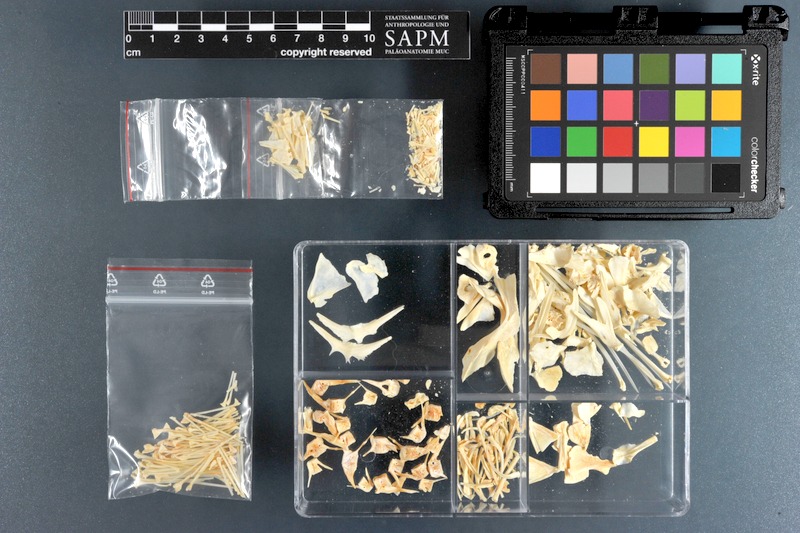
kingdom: Animalia
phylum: Chordata
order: Scorpaeniformes
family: Scorpaenidae
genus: Pterois
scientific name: Pterois russelii
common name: Plaintail firefish
